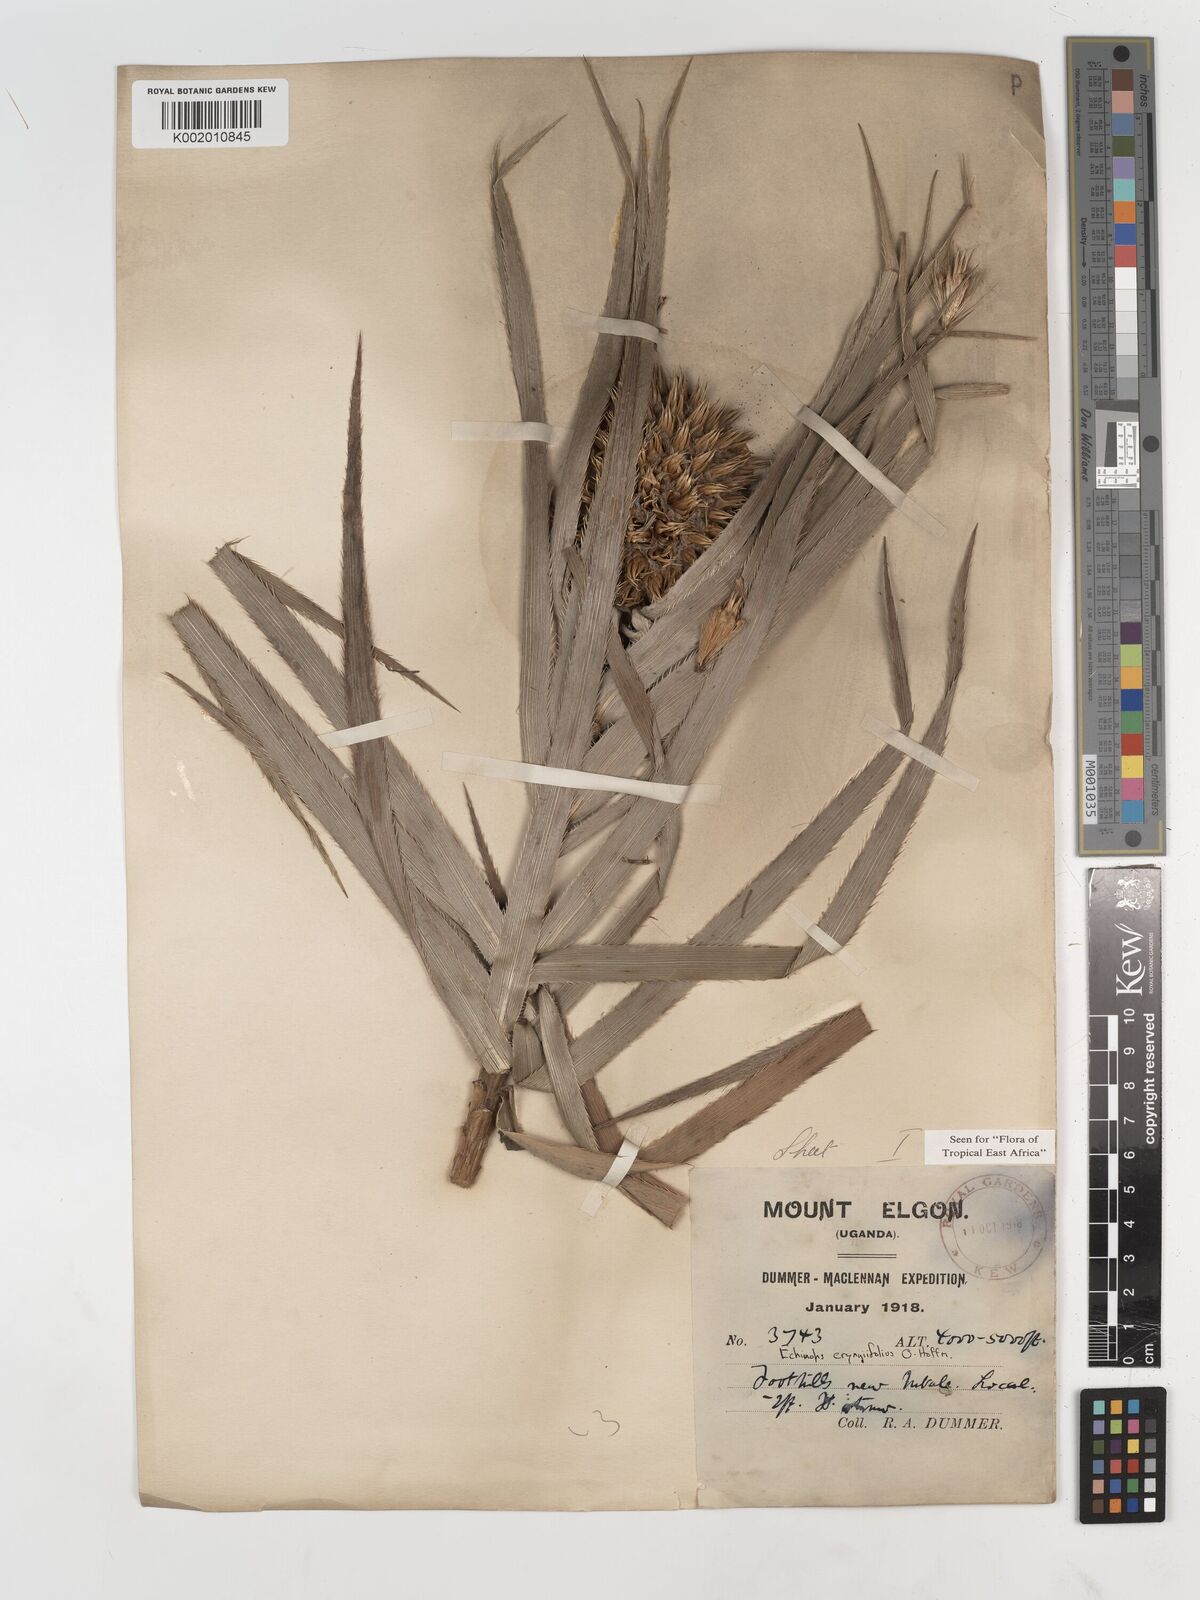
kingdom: Plantae
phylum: Tracheophyta
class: Magnoliopsida
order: Asterales
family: Asteraceae
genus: Echinops
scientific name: Echinops eryngiifolius
